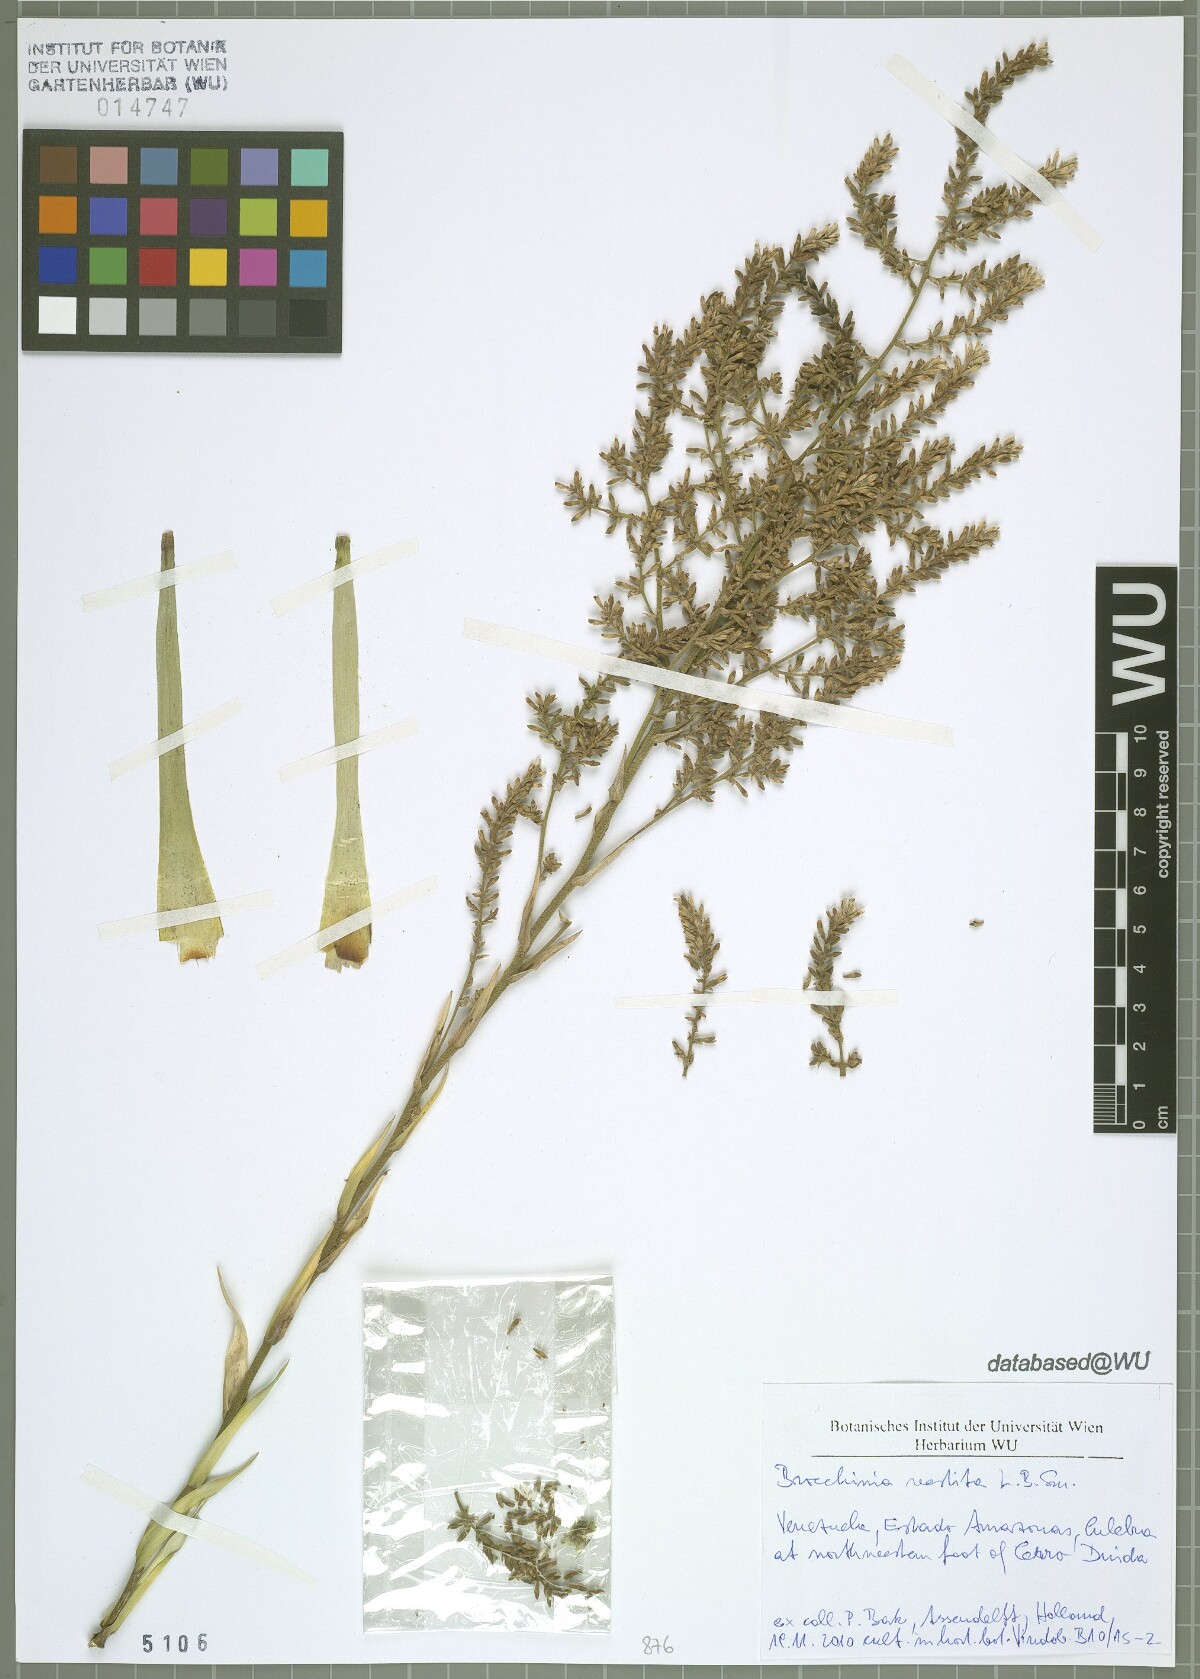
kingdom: Plantae
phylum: Tracheophyta
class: Liliopsida
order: Poales
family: Bromeliaceae
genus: Brocchinia
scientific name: Brocchinia vestita
